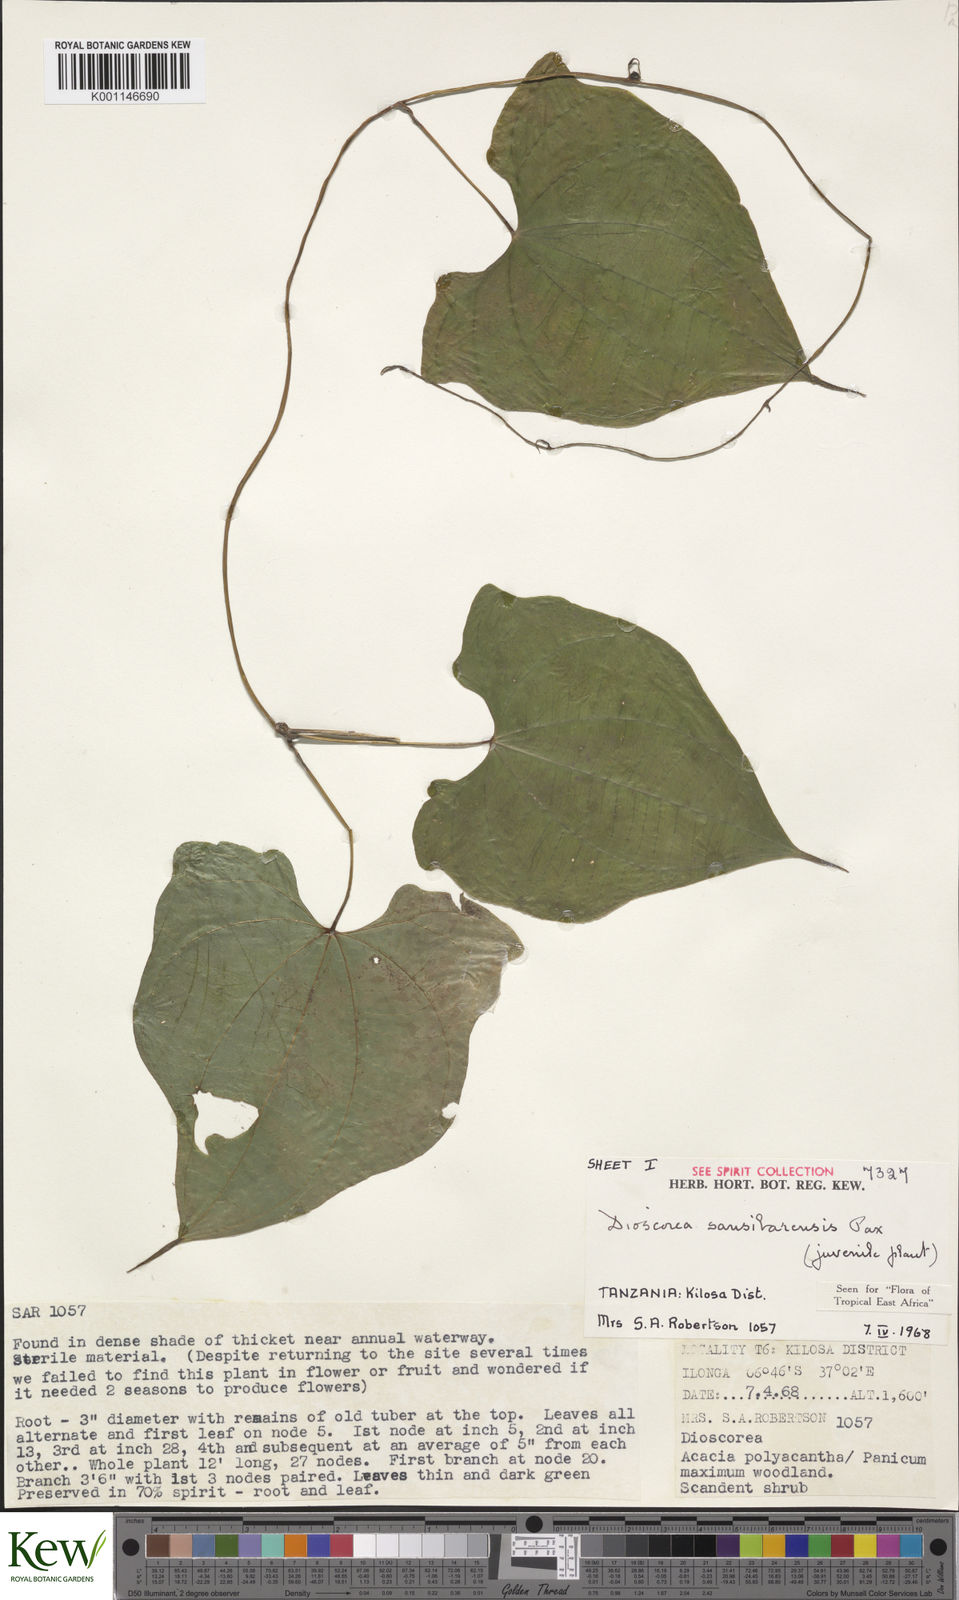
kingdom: Plantae
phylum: Tracheophyta
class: Liliopsida
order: Dioscoreales
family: Dioscoreaceae
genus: Dioscorea
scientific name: Dioscorea sansibarensis
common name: Zanzibar yam
